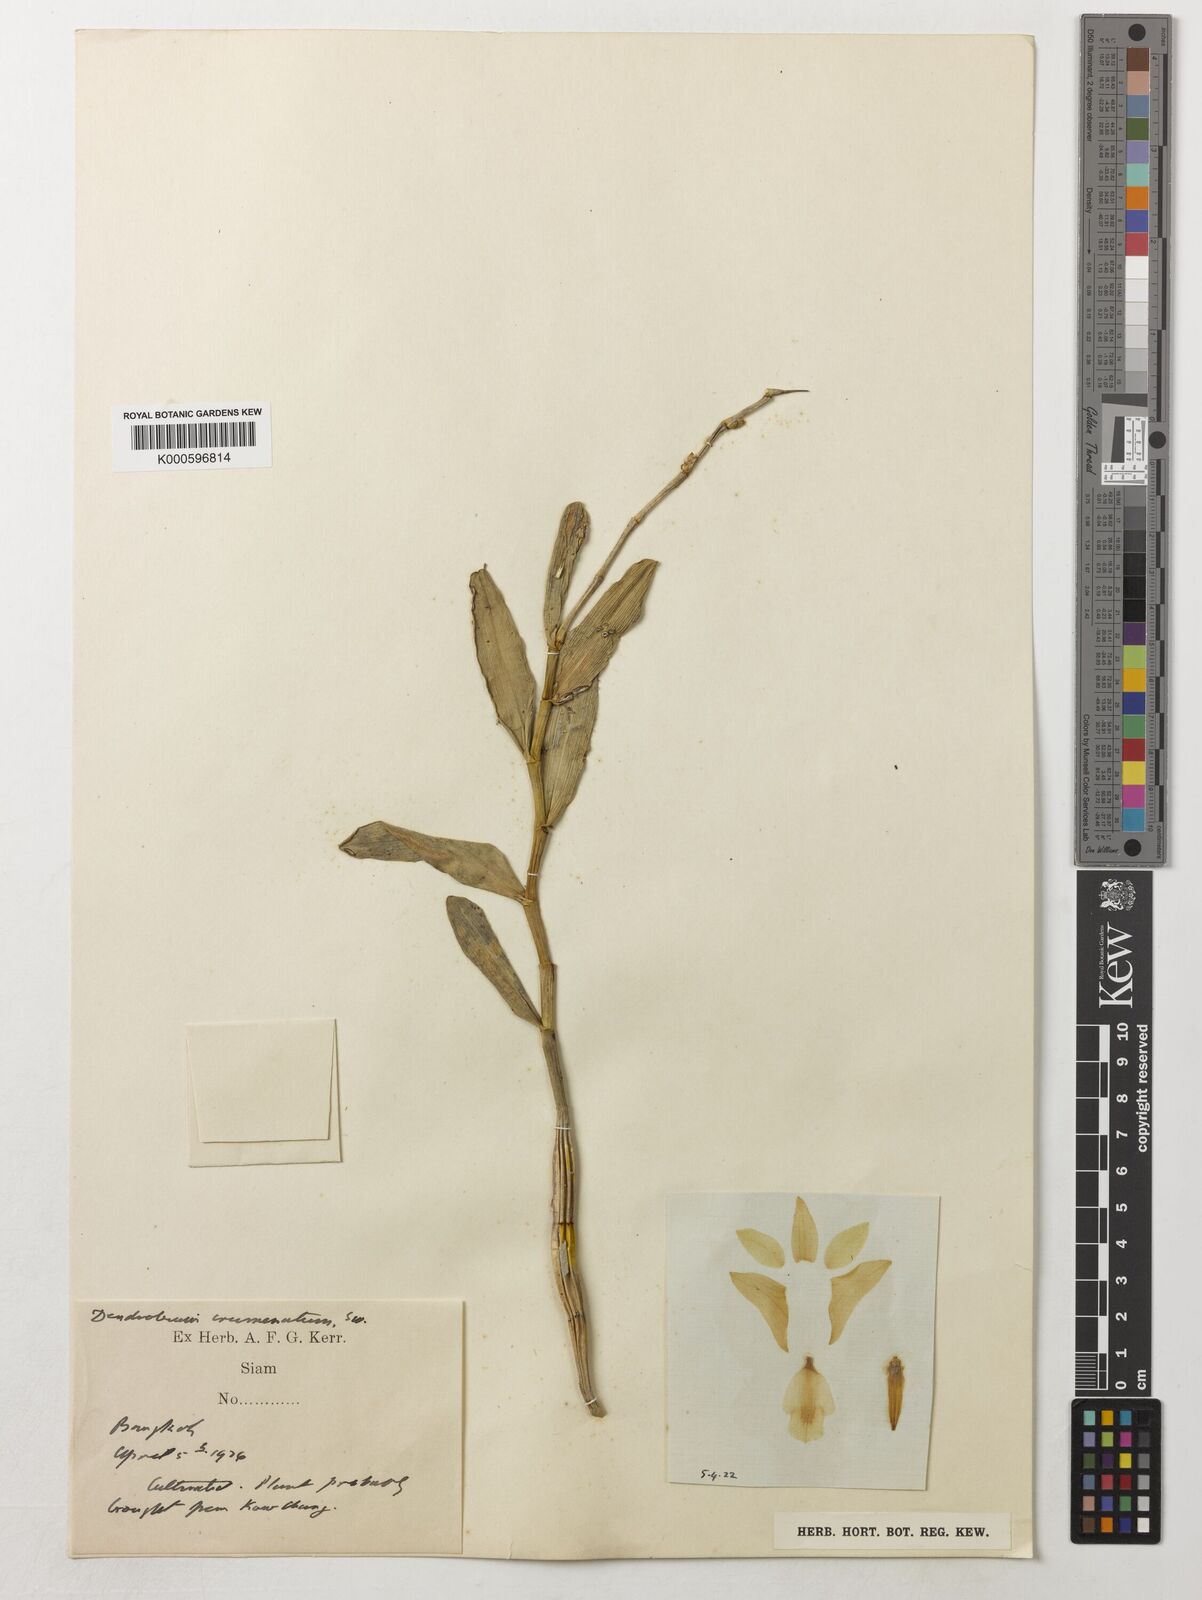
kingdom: Plantae
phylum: Tracheophyta
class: Liliopsida
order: Asparagales
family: Orchidaceae
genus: Dendrobium
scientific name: Dendrobium crumenatum
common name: Orchid
